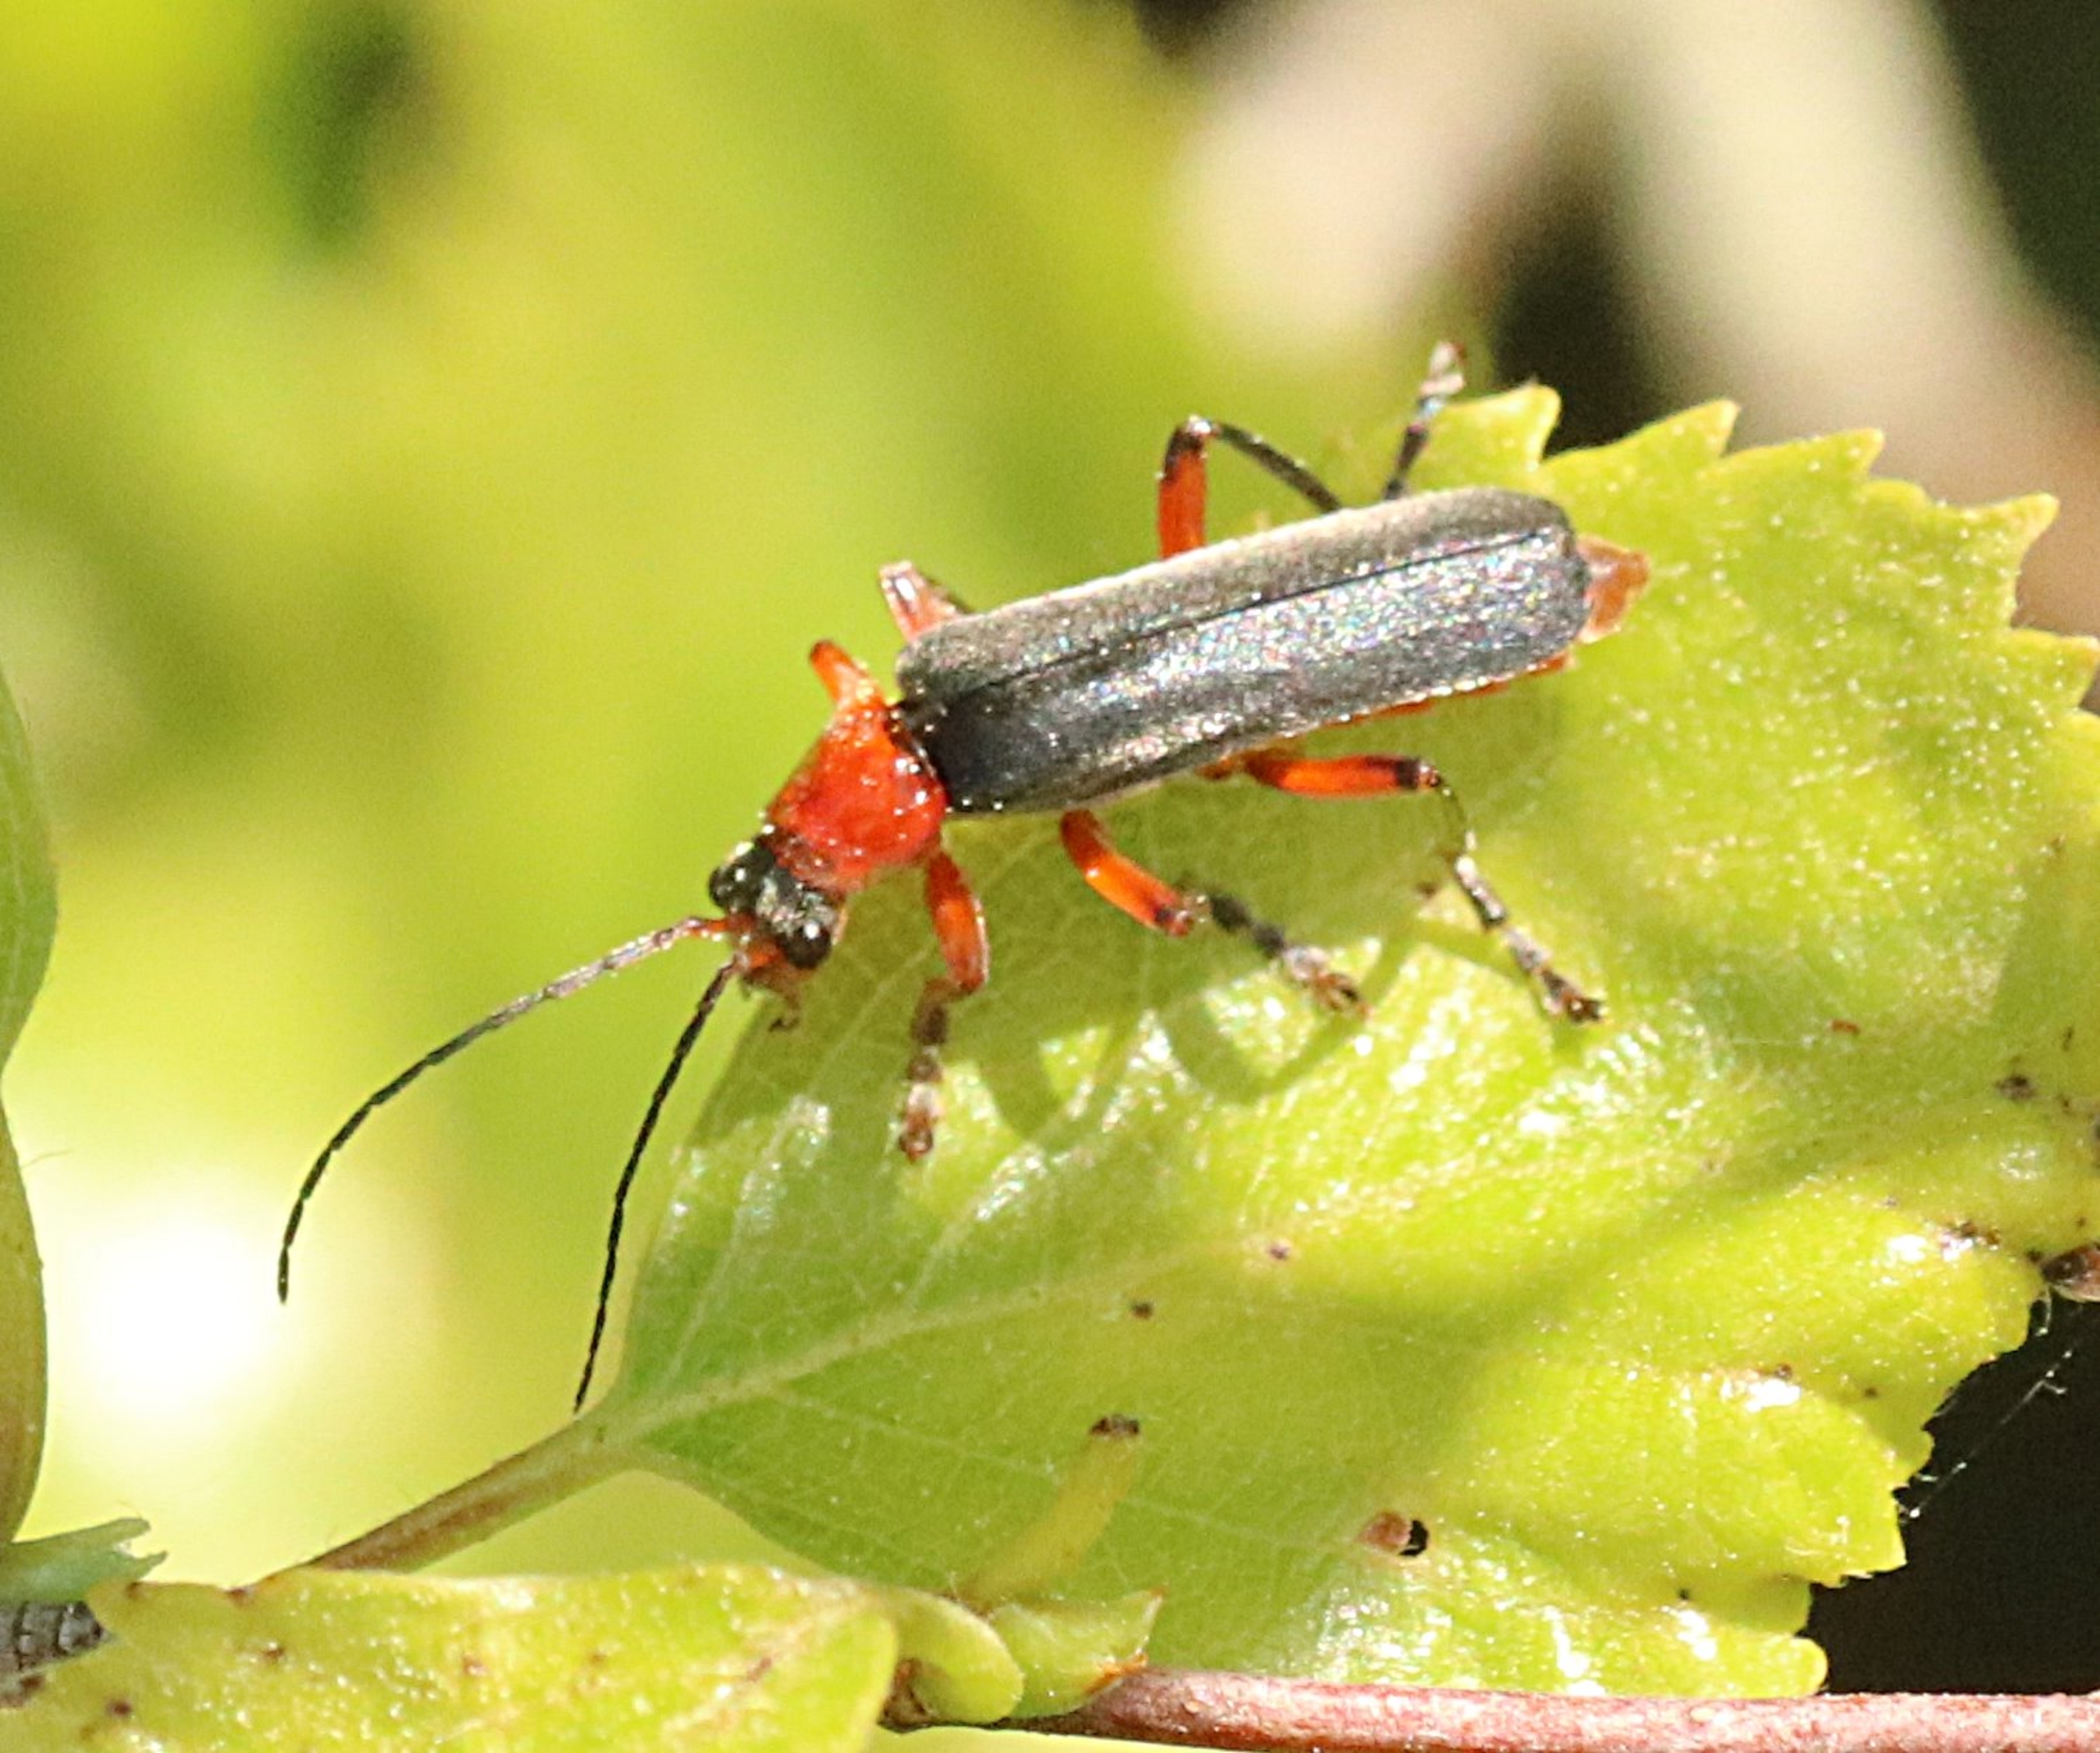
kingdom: Animalia
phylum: Arthropoda
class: Insecta
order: Coleoptera
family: Cantharidae
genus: Cantharis
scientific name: Cantharis pellucida
